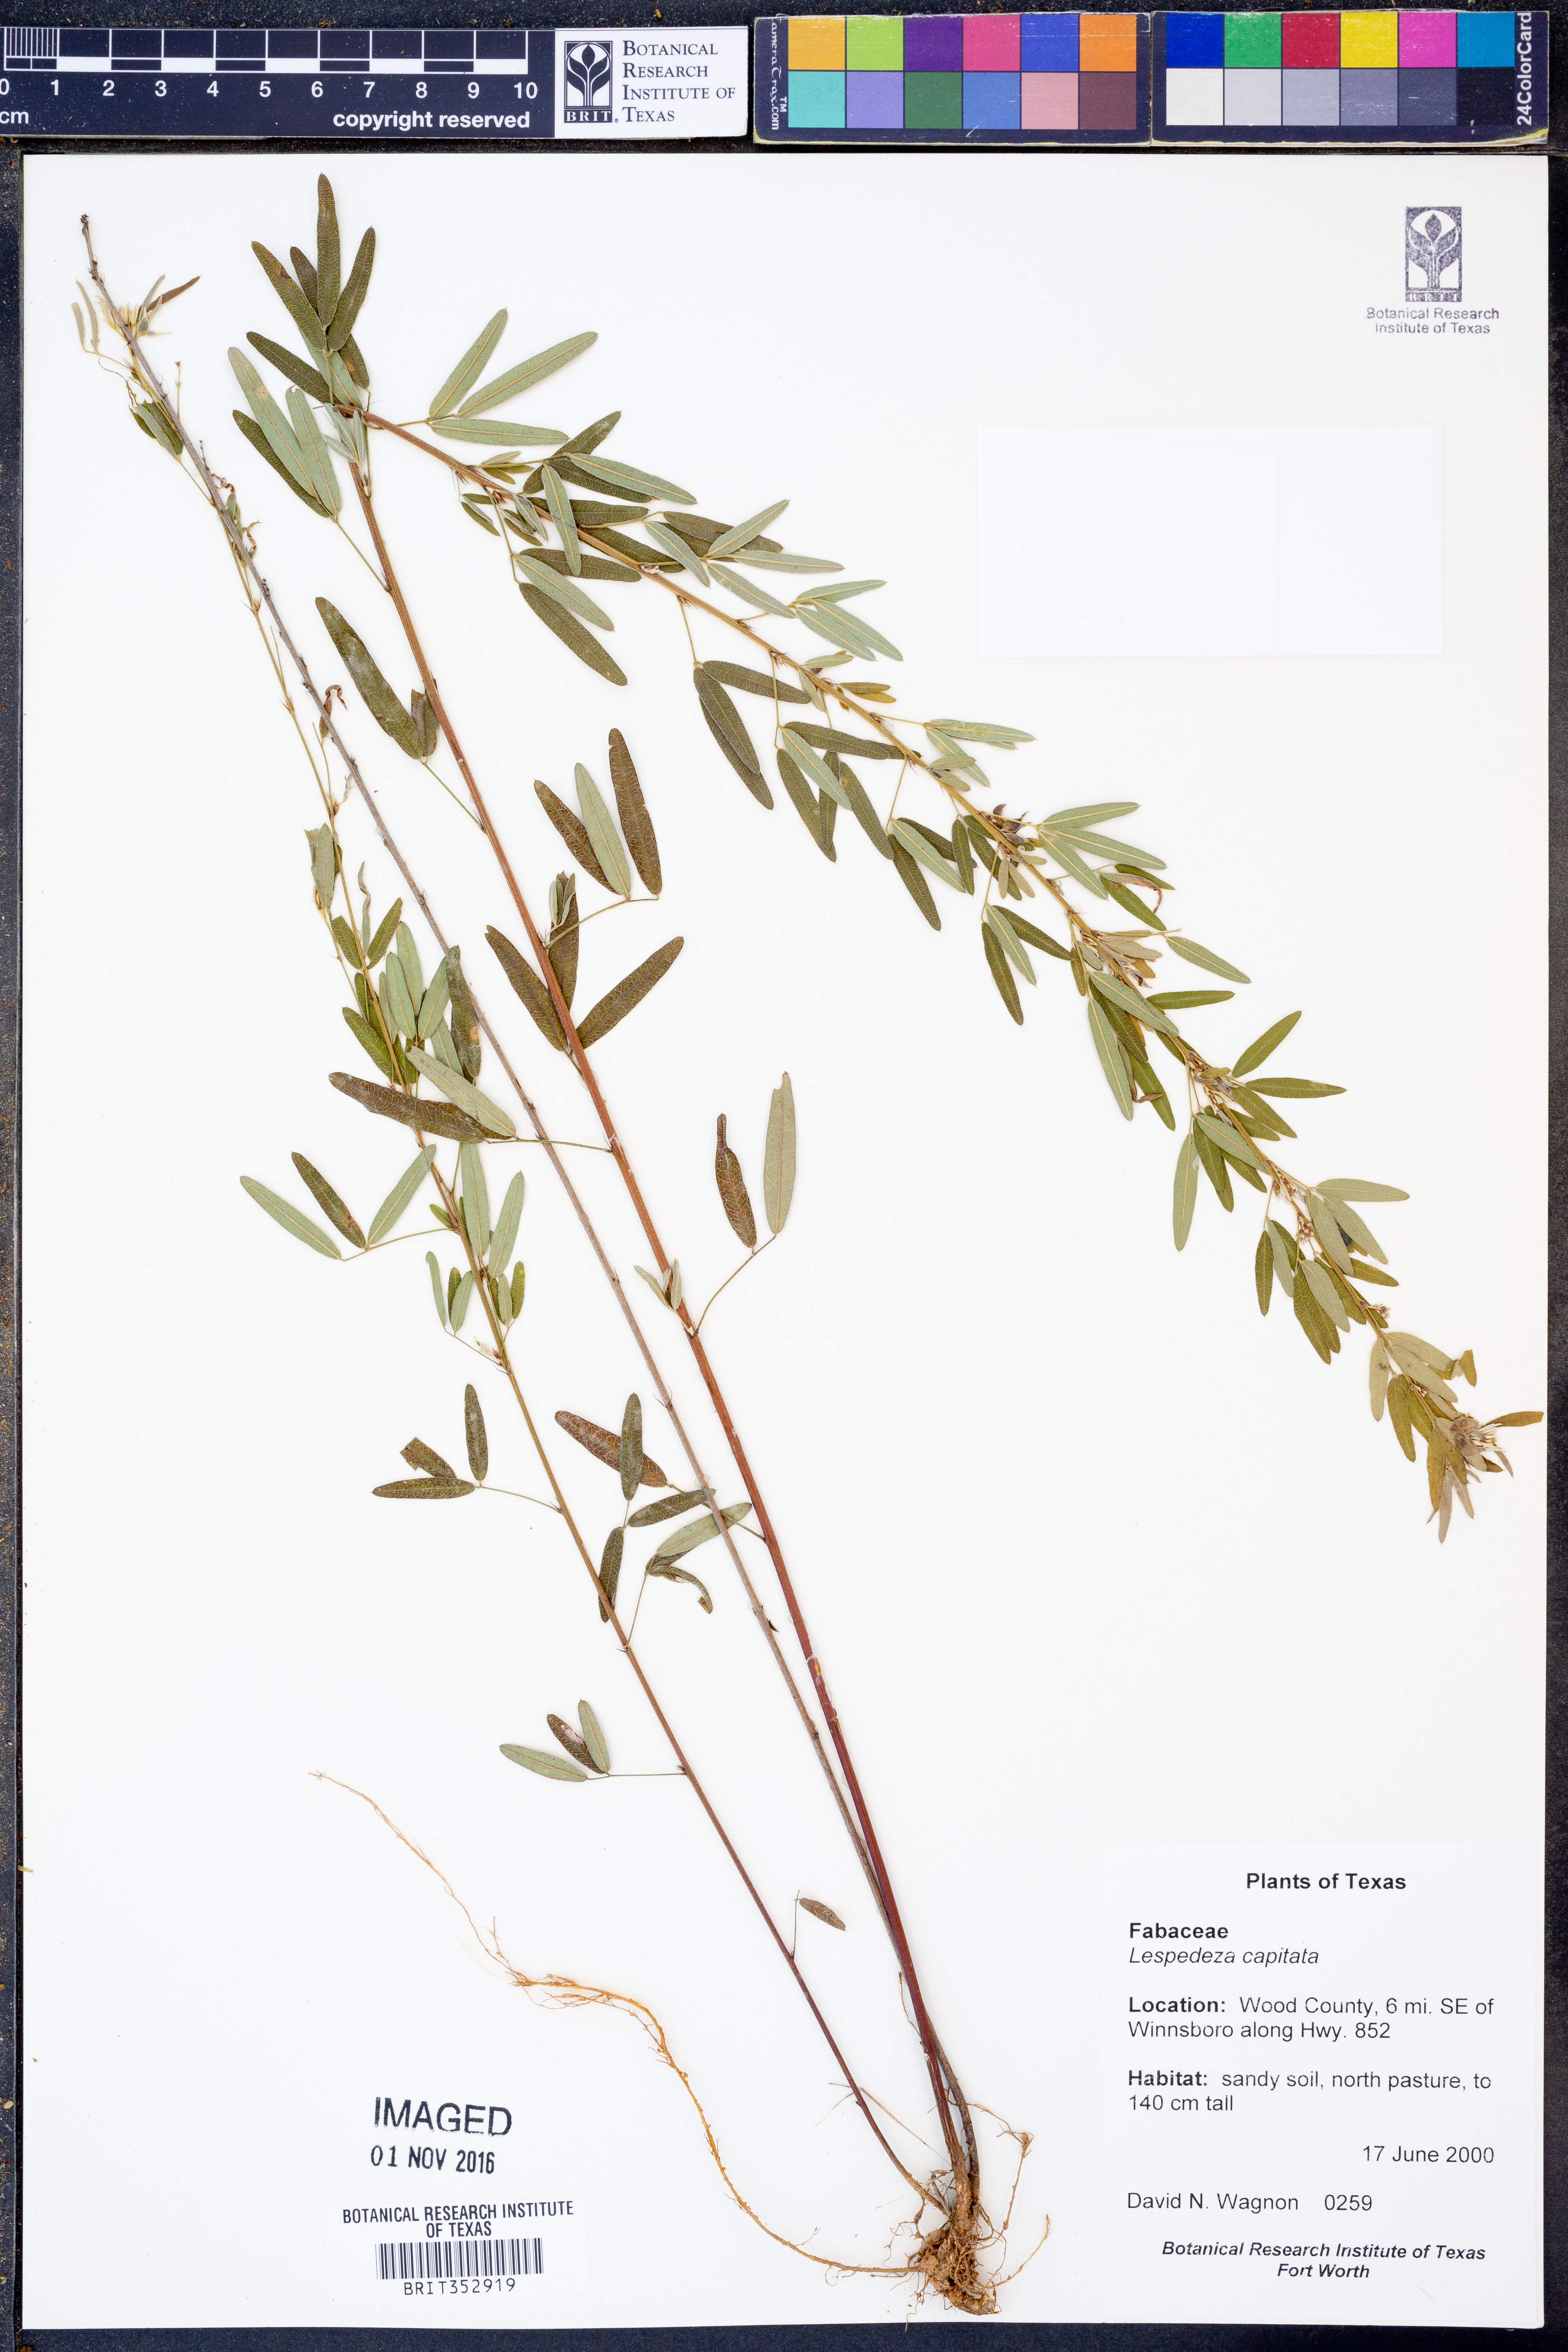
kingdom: Plantae
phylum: Tracheophyta
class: Magnoliopsida
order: Fabales
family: Fabaceae
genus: Lespedeza
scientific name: Lespedeza capitata
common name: Dusty clover
